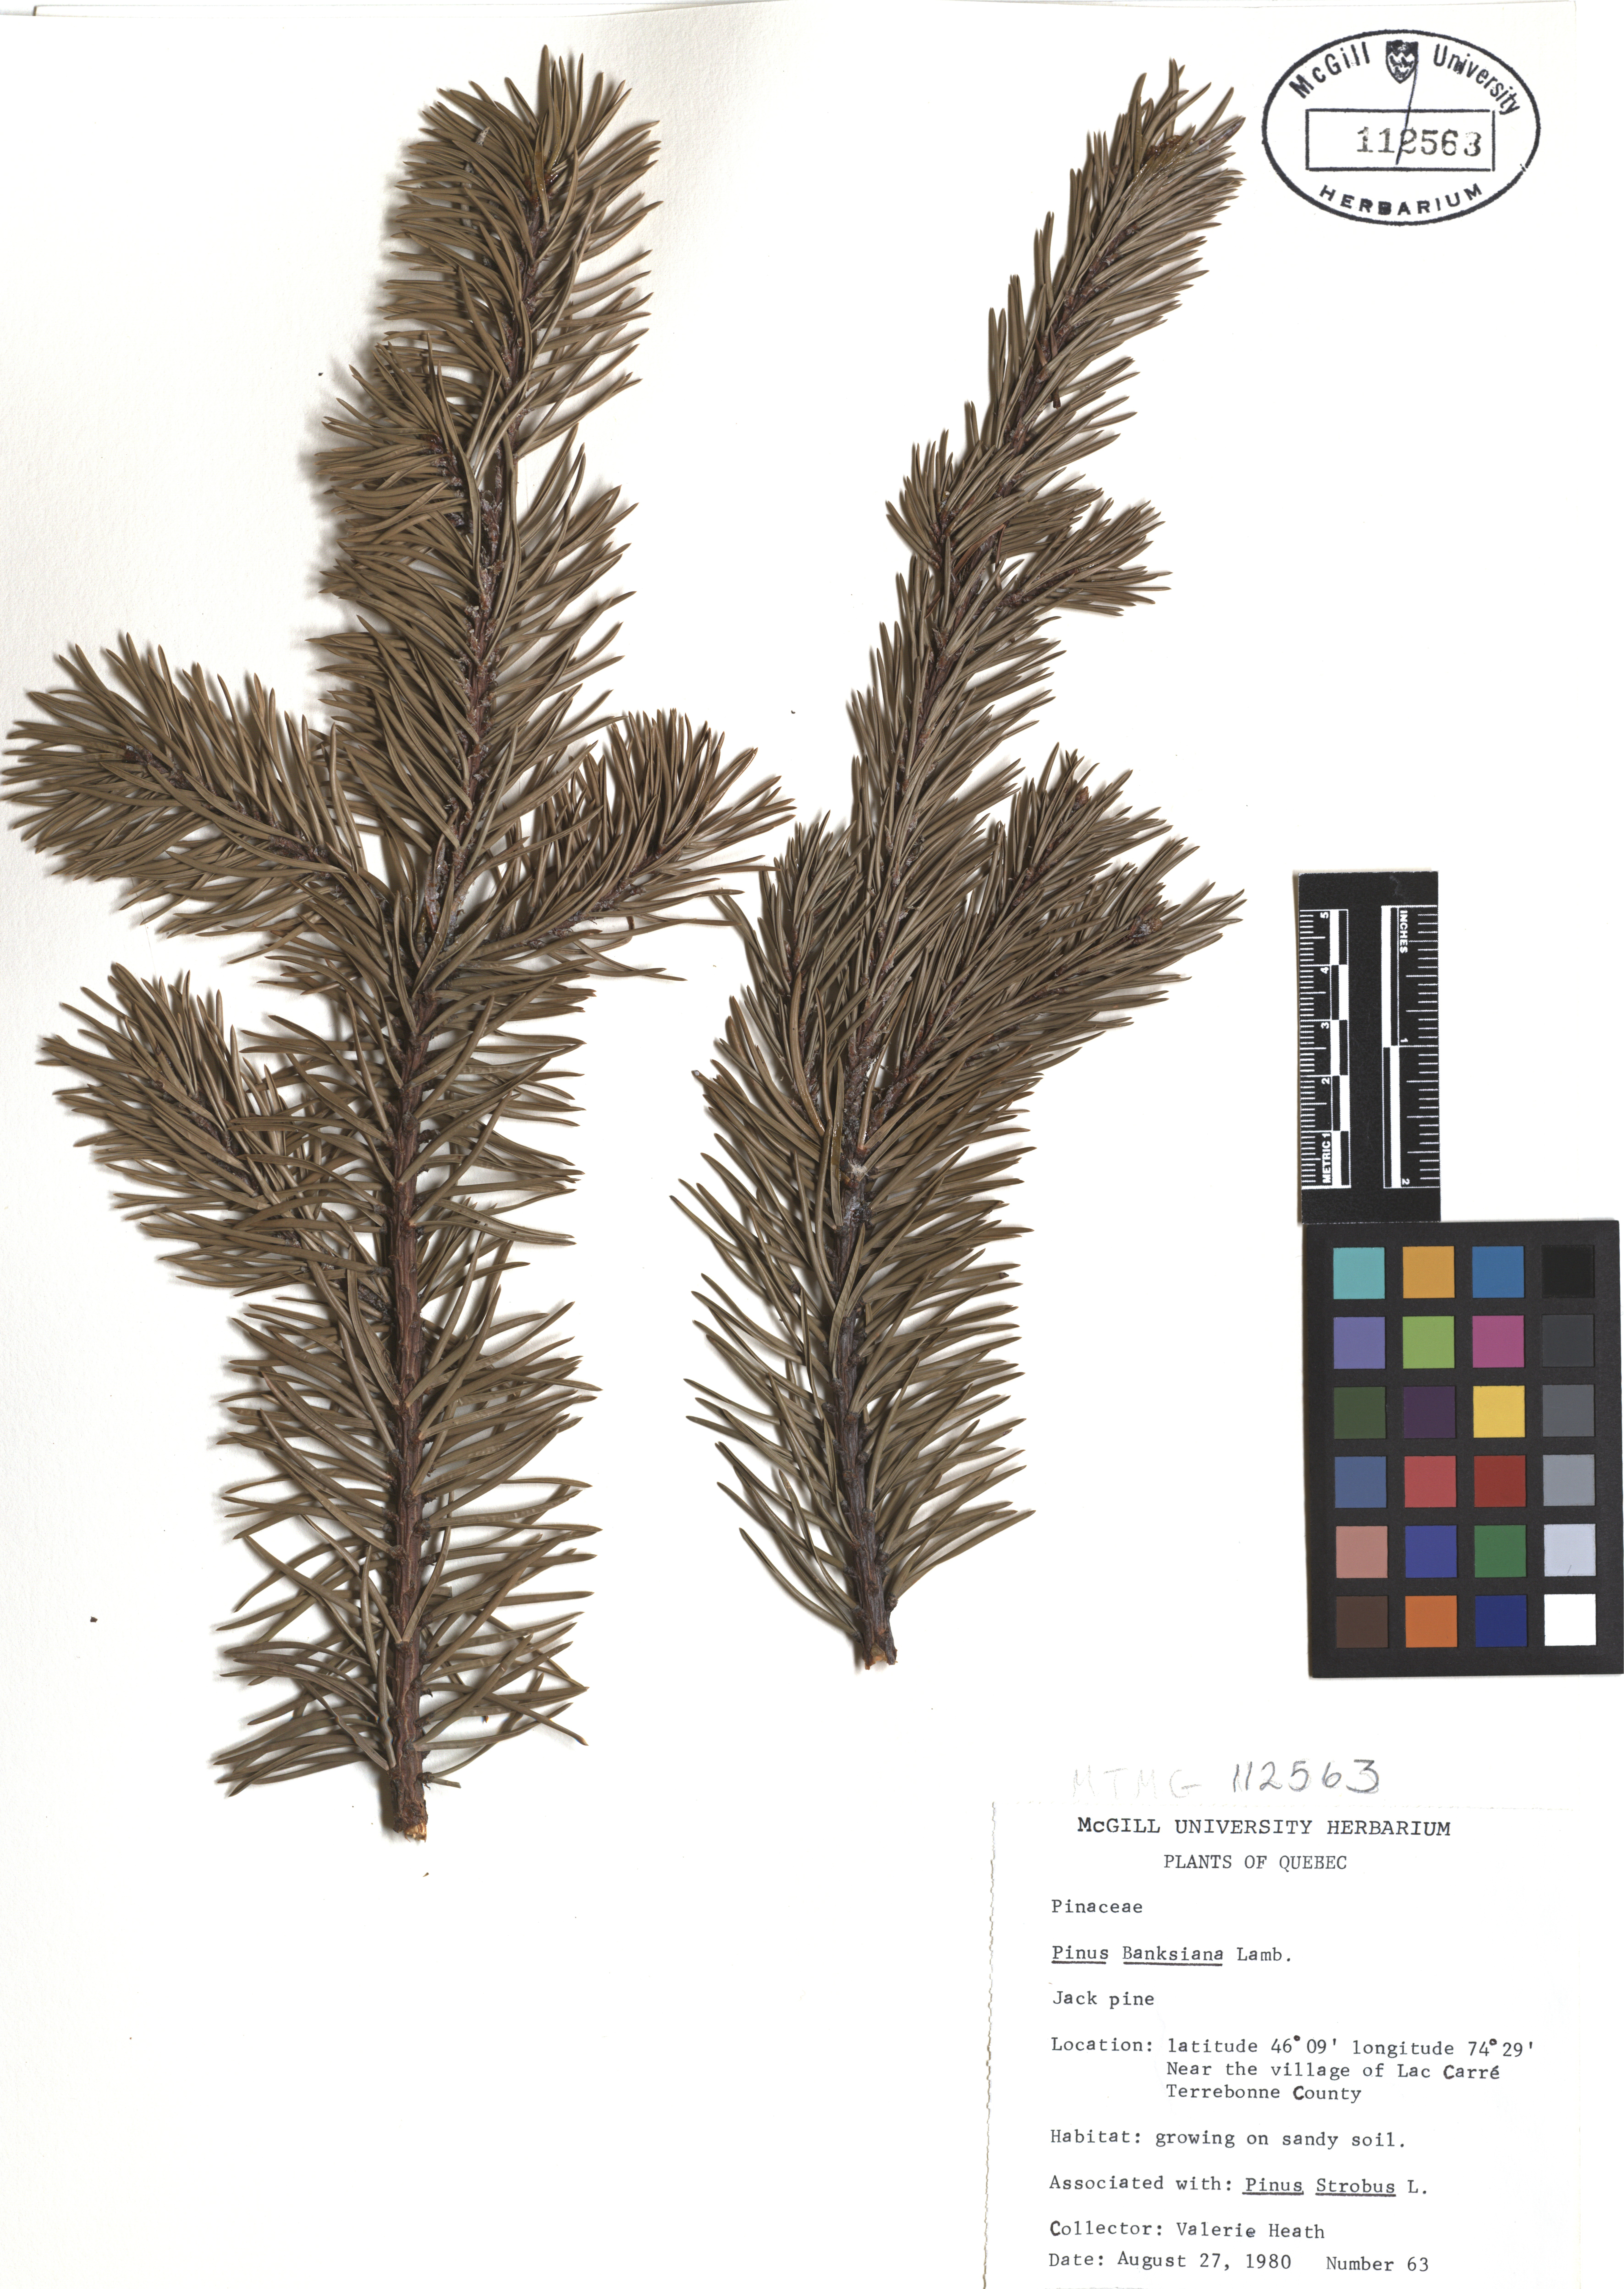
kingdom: Plantae
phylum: Tracheophyta
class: Pinopsida
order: Pinales
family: Pinaceae
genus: Pinus
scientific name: Pinus banksiana
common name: Jack pine
